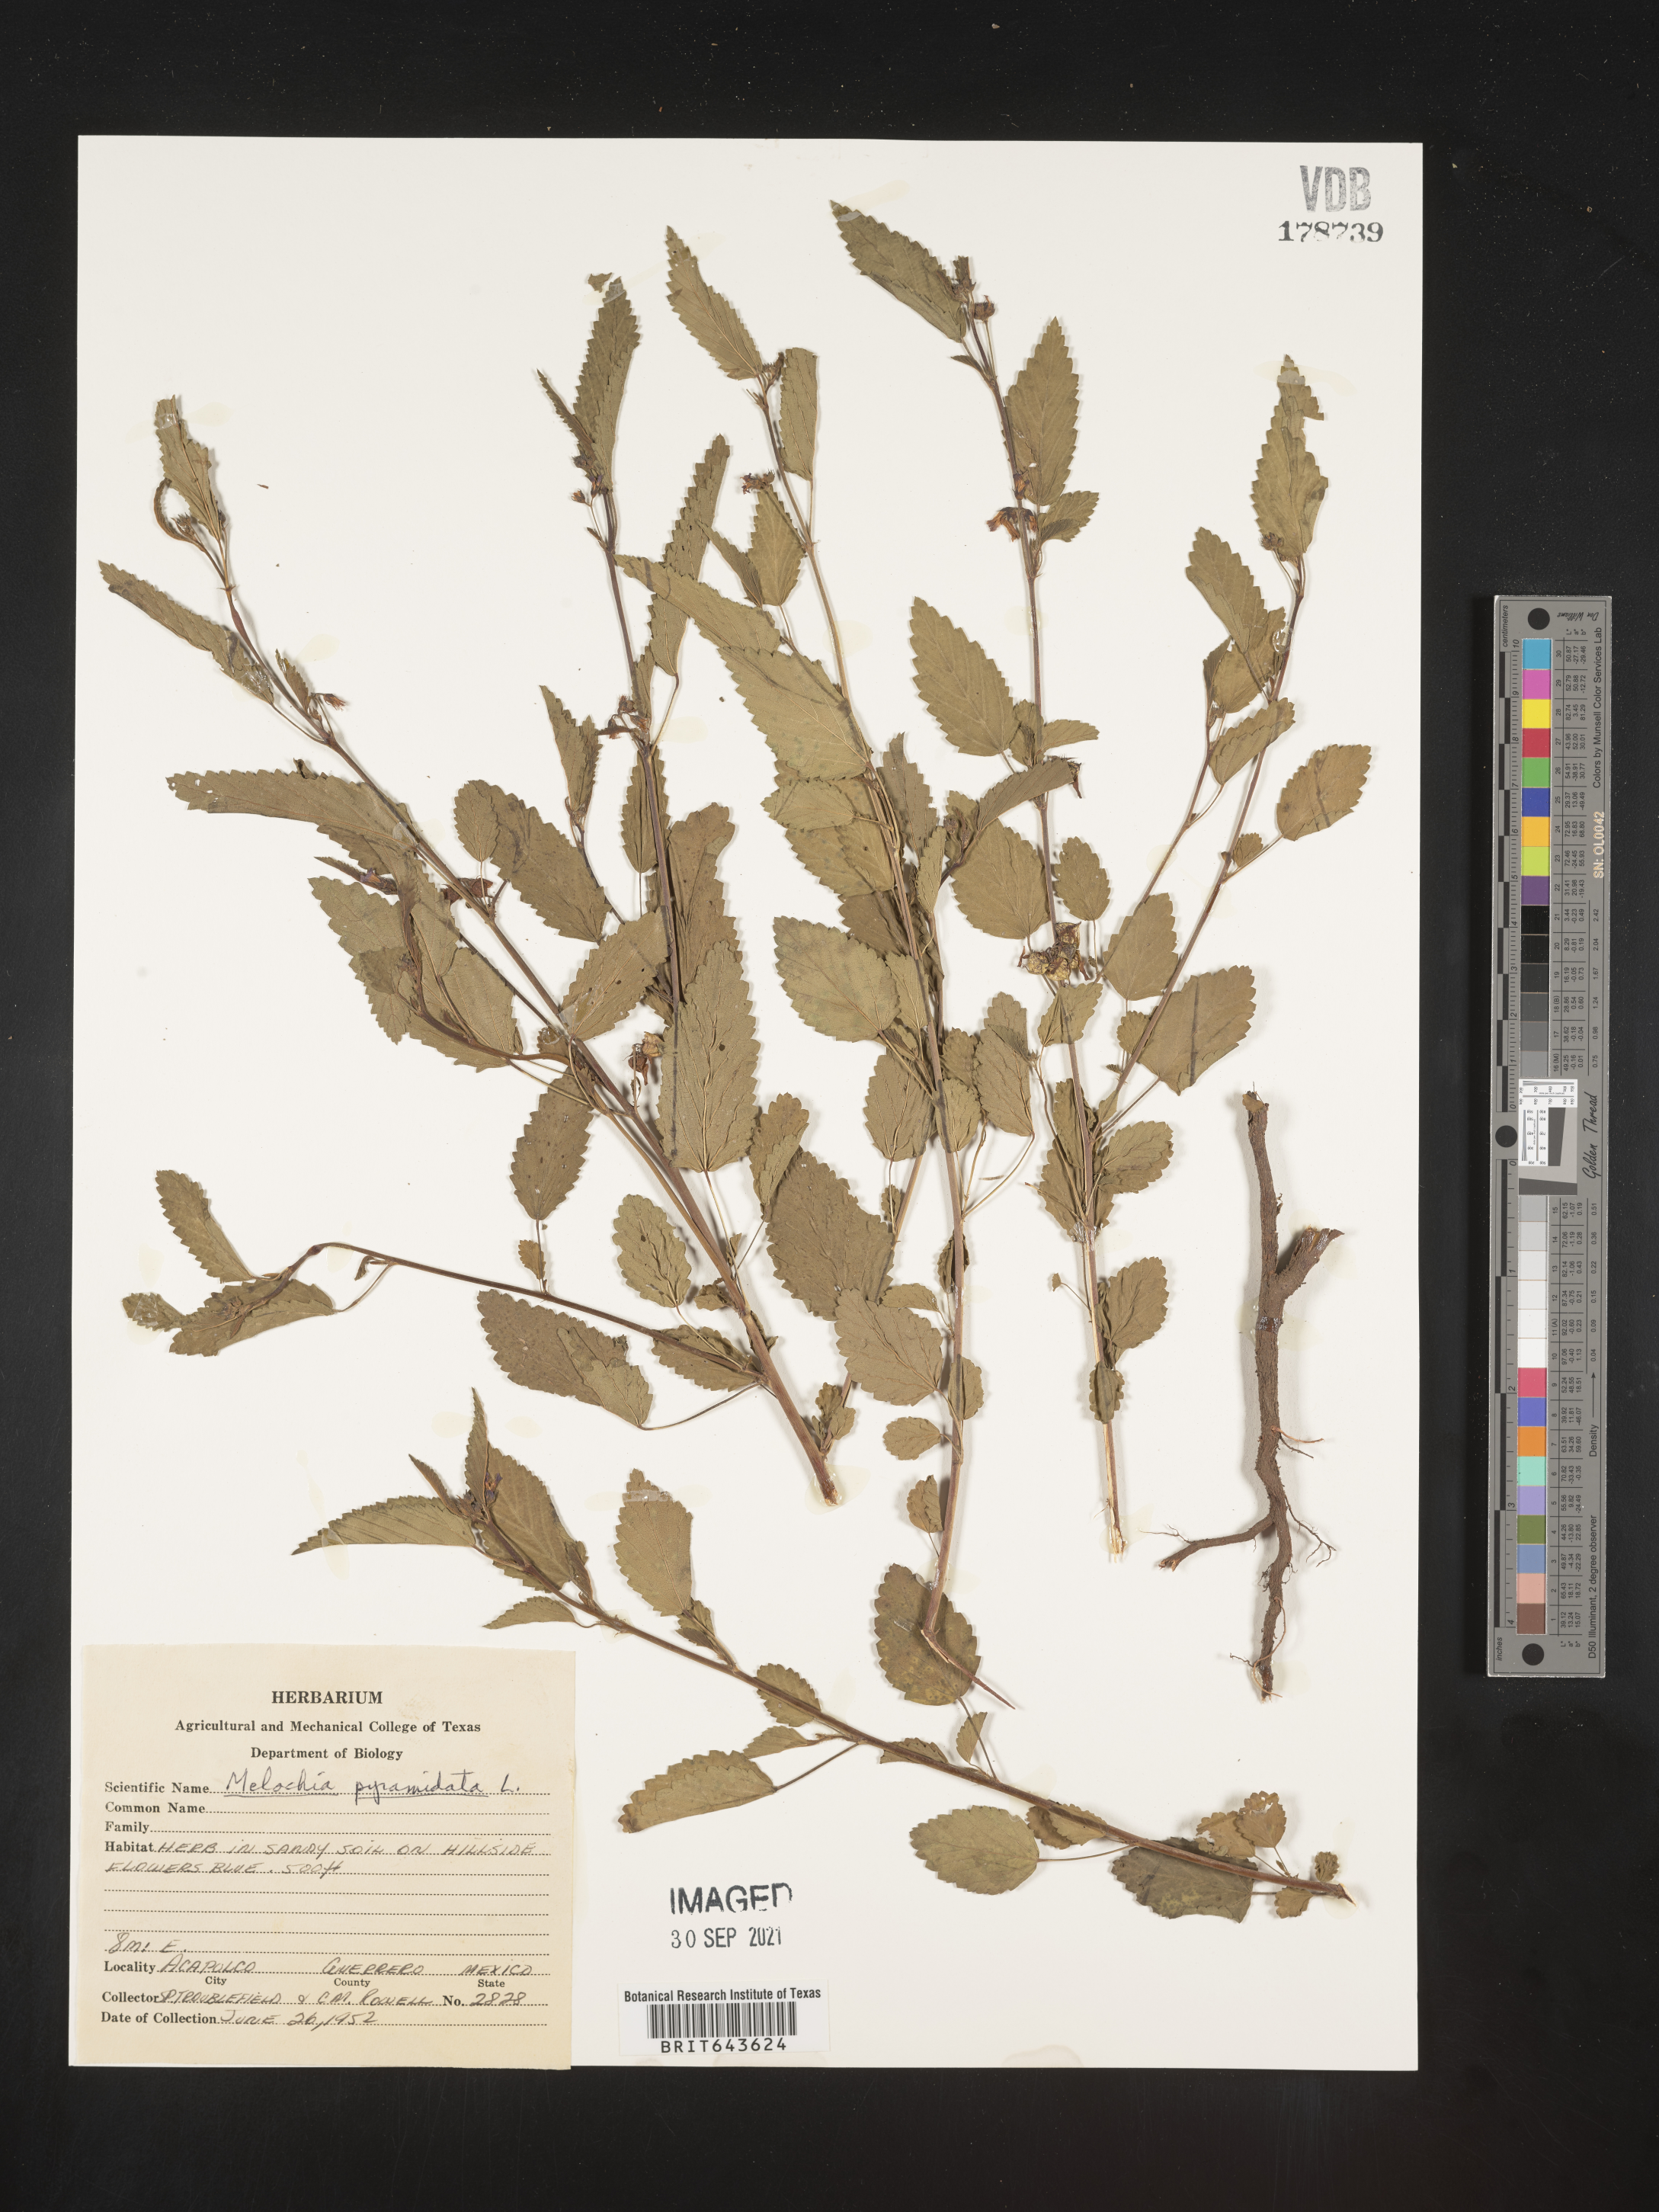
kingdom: Plantae
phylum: Tracheophyta
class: Magnoliopsida
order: Malvales
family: Malvaceae
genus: Melochia
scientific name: Melochia
